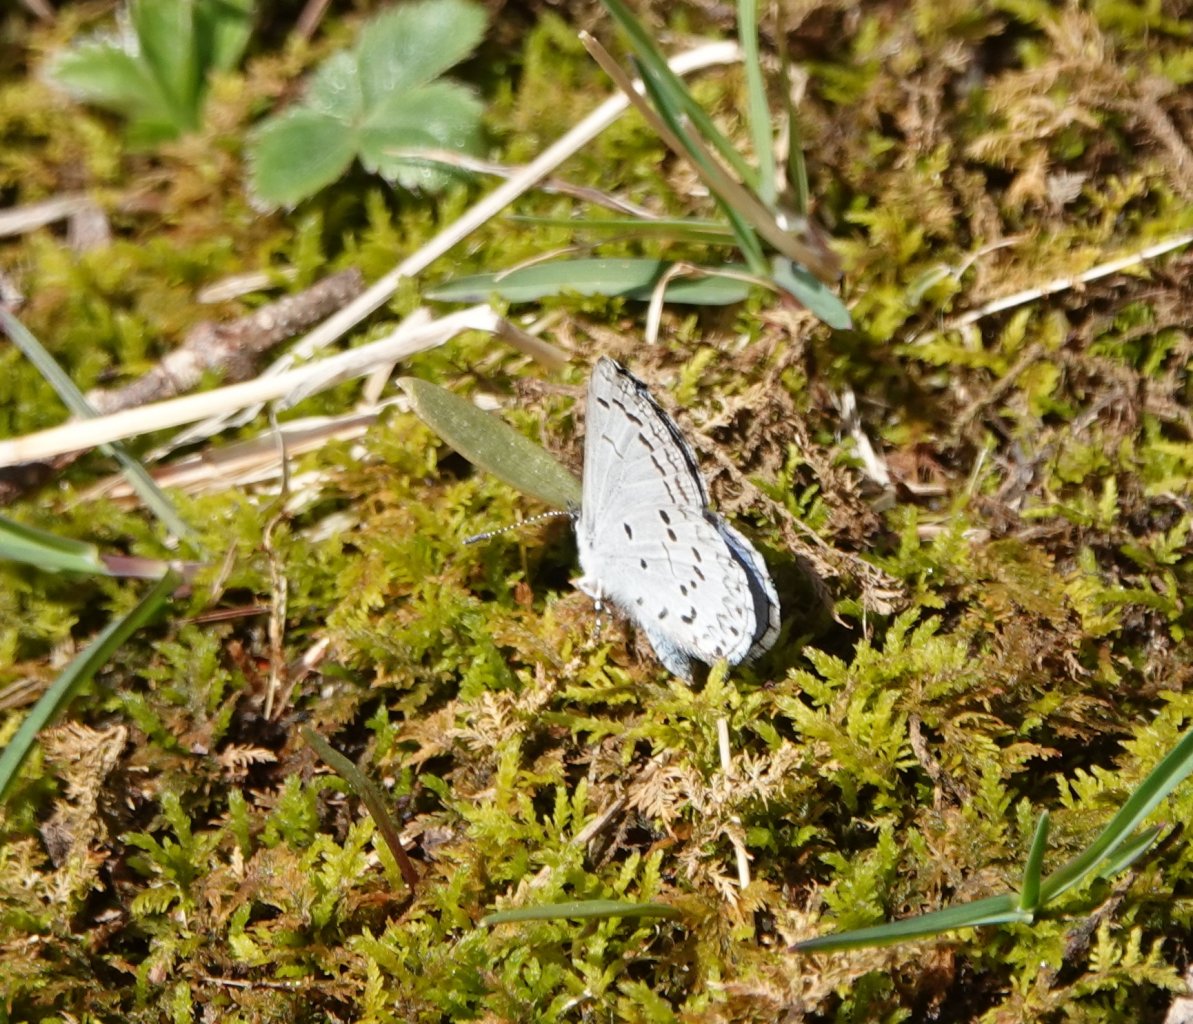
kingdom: Animalia
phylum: Arthropoda
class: Insecta
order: Lepidoptera
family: Lycaenidae
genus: Cyaniris
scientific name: Cyaniris neglecta
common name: Summer Azure
